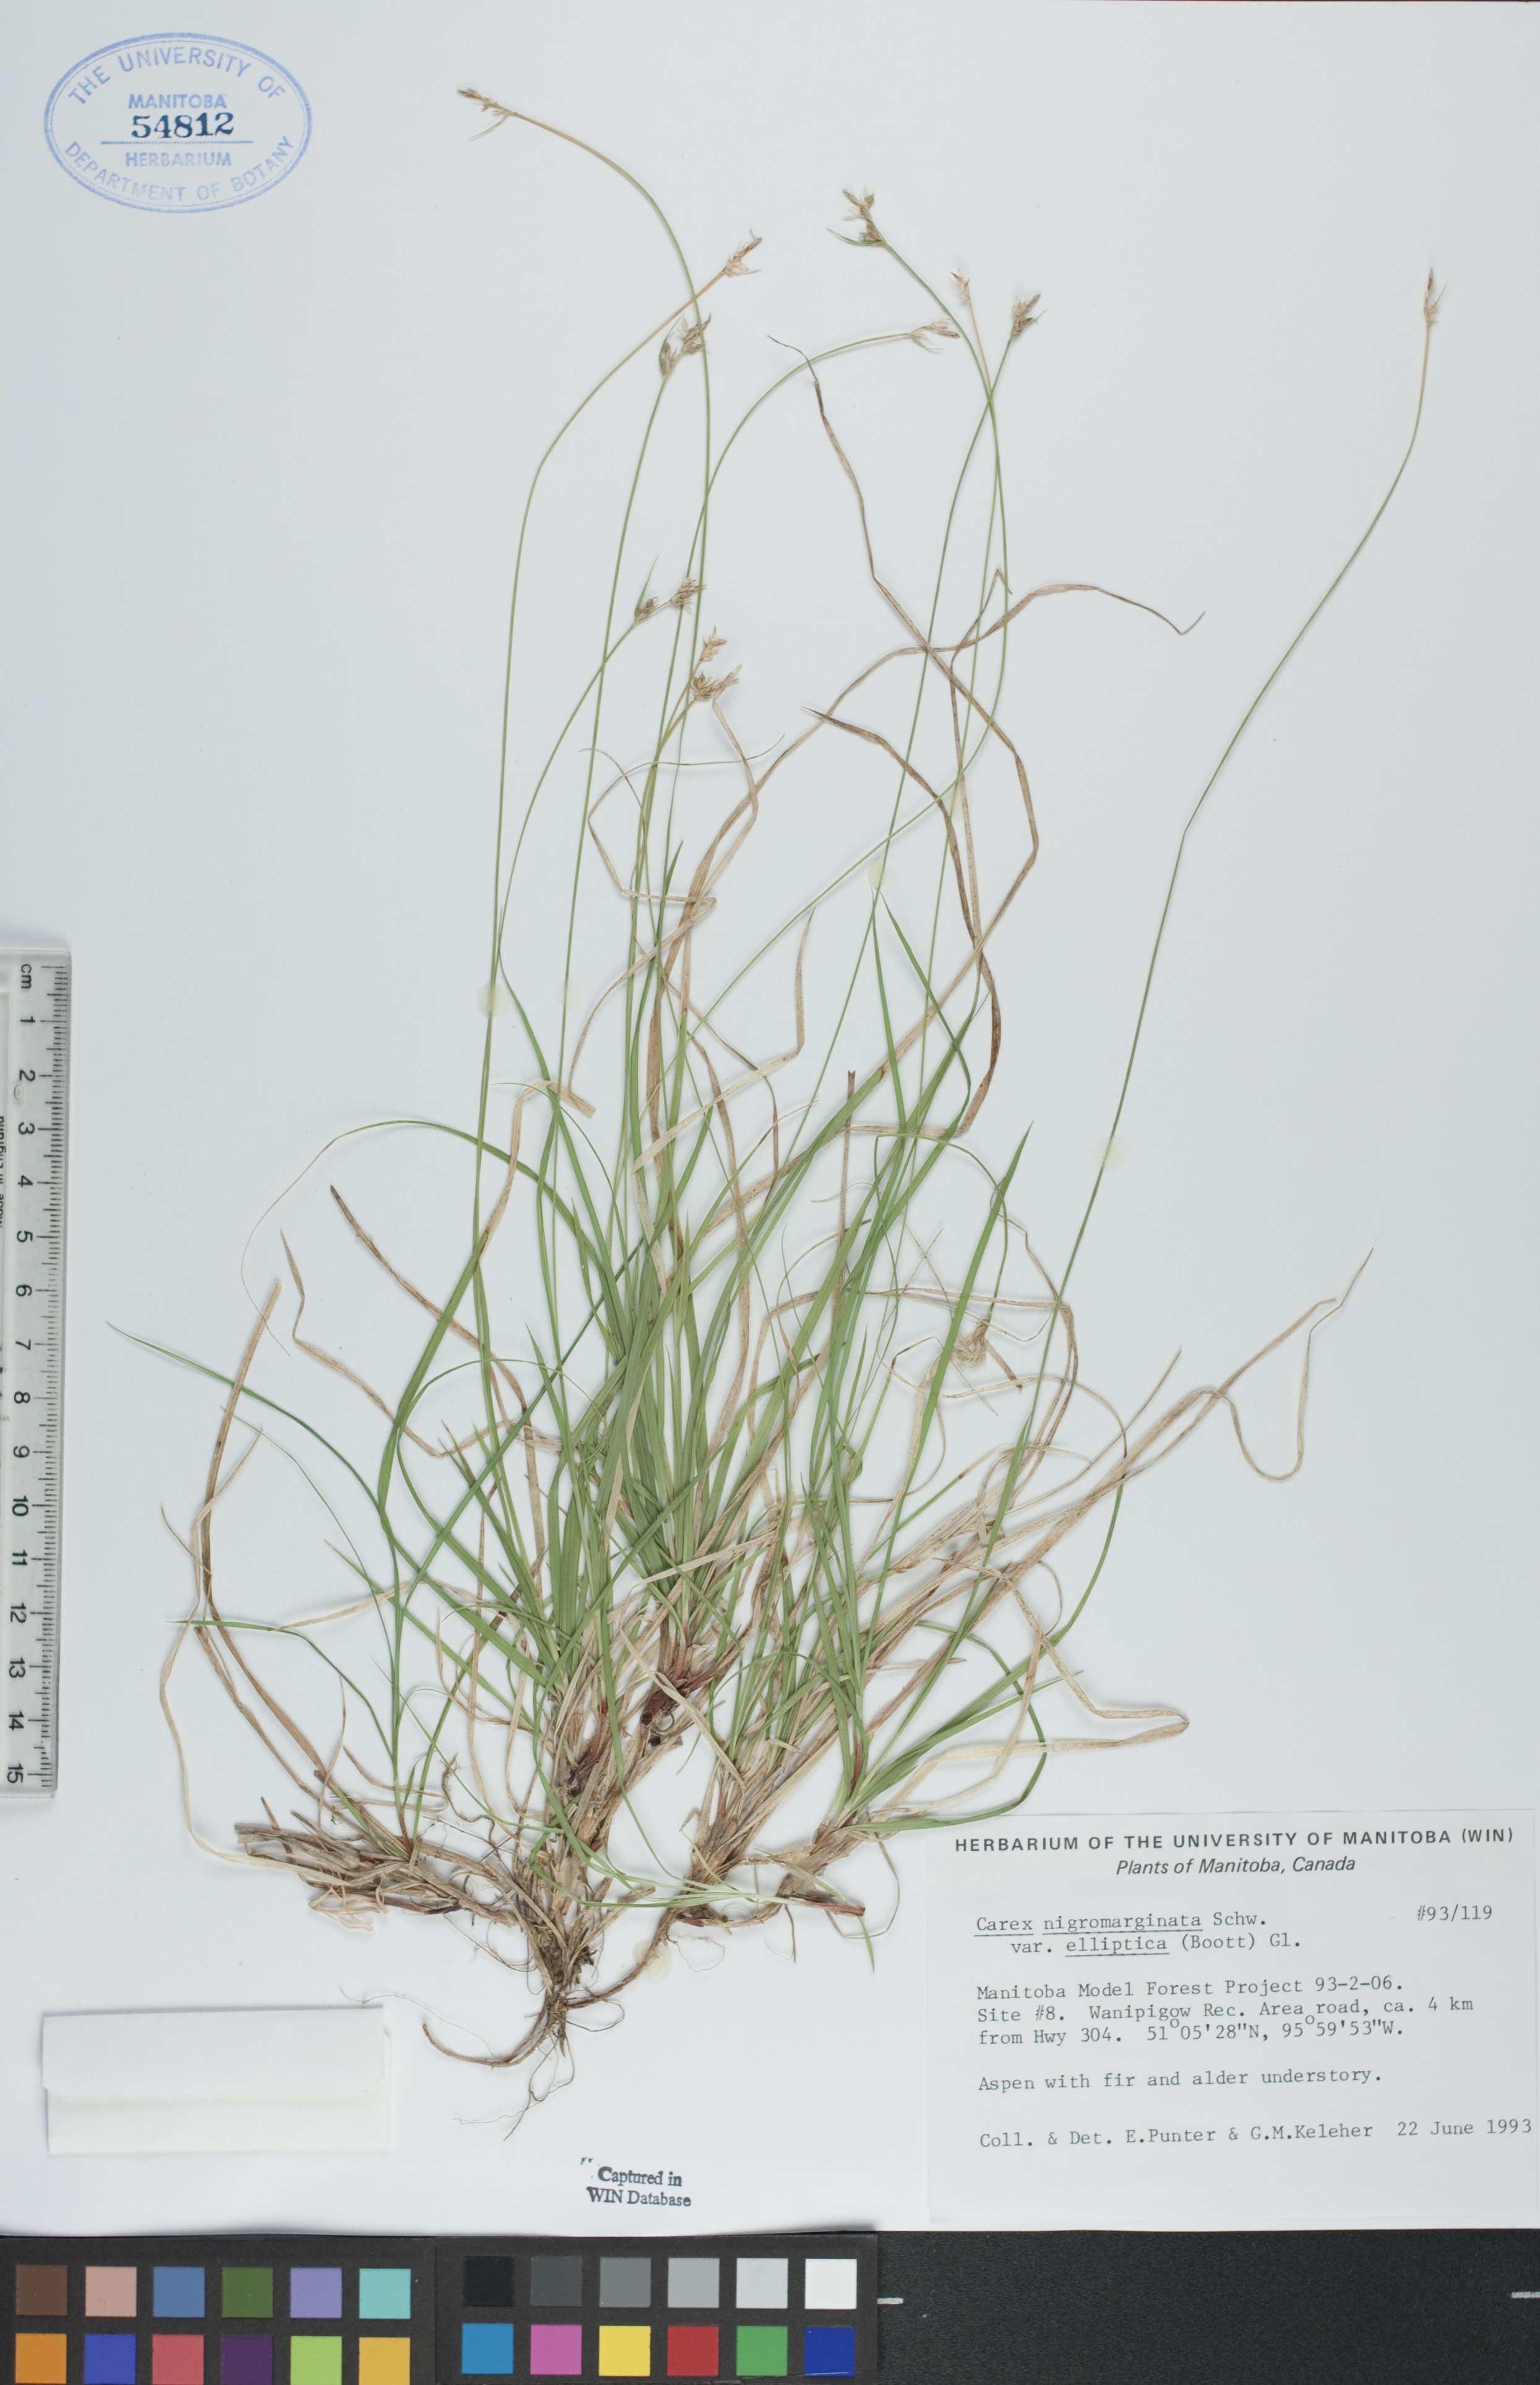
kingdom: Plantae
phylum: Tracheophyta
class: Liliopsida
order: Poales
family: Cyperaceae
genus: Carex
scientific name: Carex peckii
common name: Peck's oak sedge
